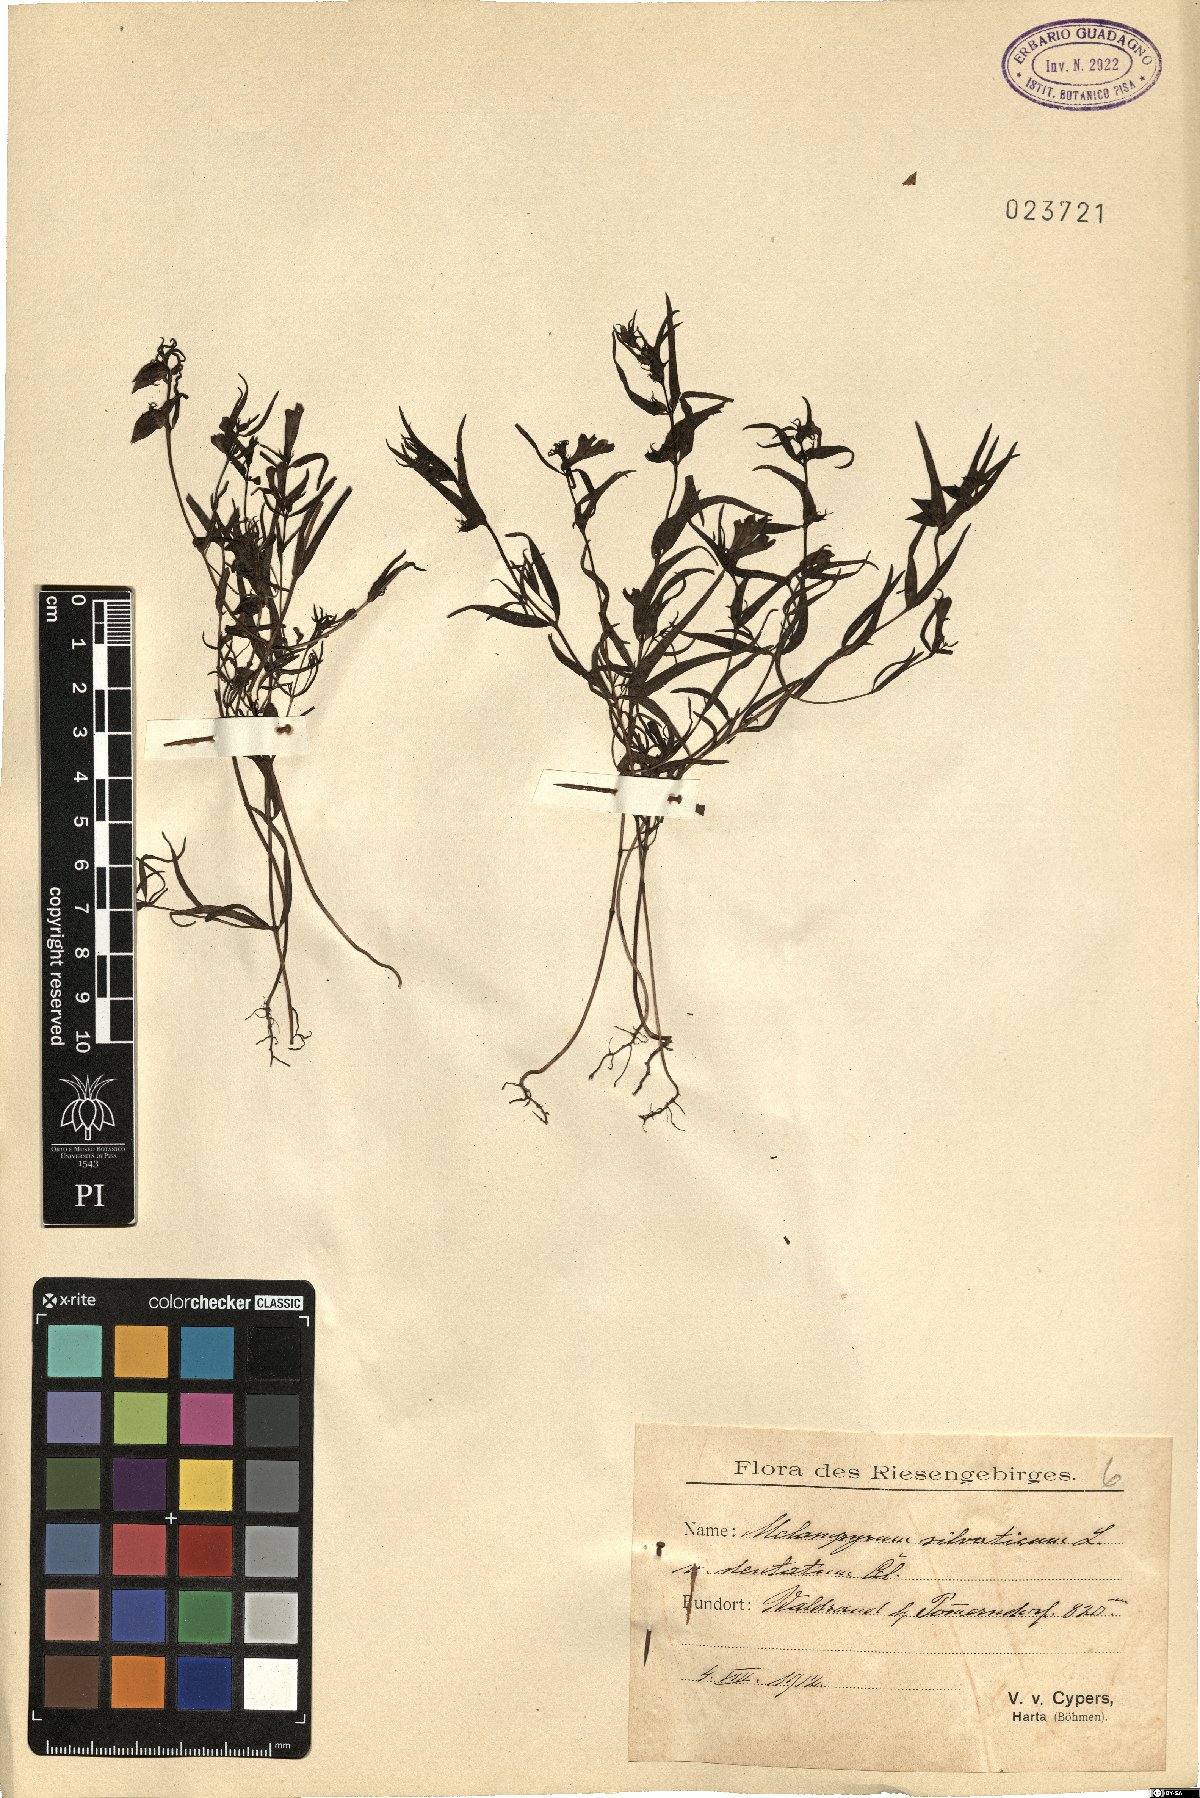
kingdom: Plantae
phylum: Tracheophyta
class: Magnoliopsida
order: Lamiales
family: Orobanchaceae
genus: Melampyrum
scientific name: Melampyrum sylvaticum
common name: Small cow-wheat
